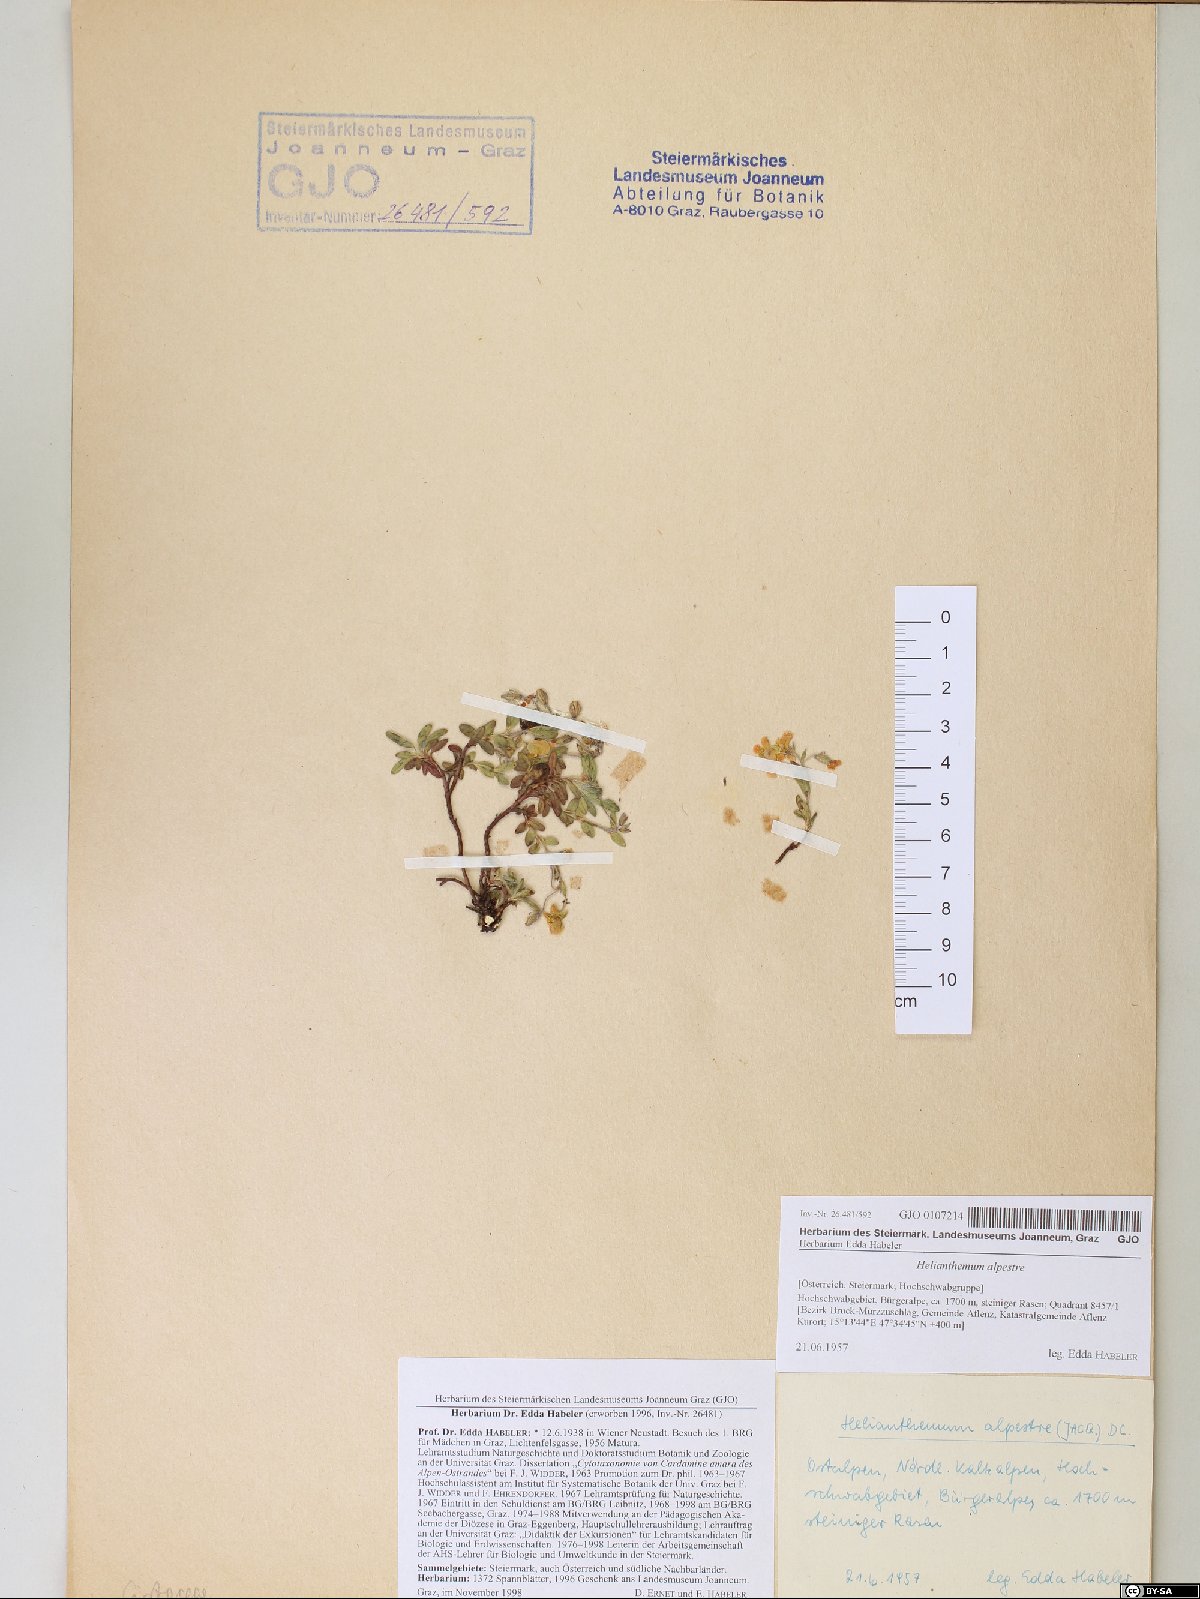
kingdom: Plantae
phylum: Tracheophyta
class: Magnoliopsida
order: Malvales
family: Cistaceae
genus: Helianthemum
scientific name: Helianthemum alpestre
